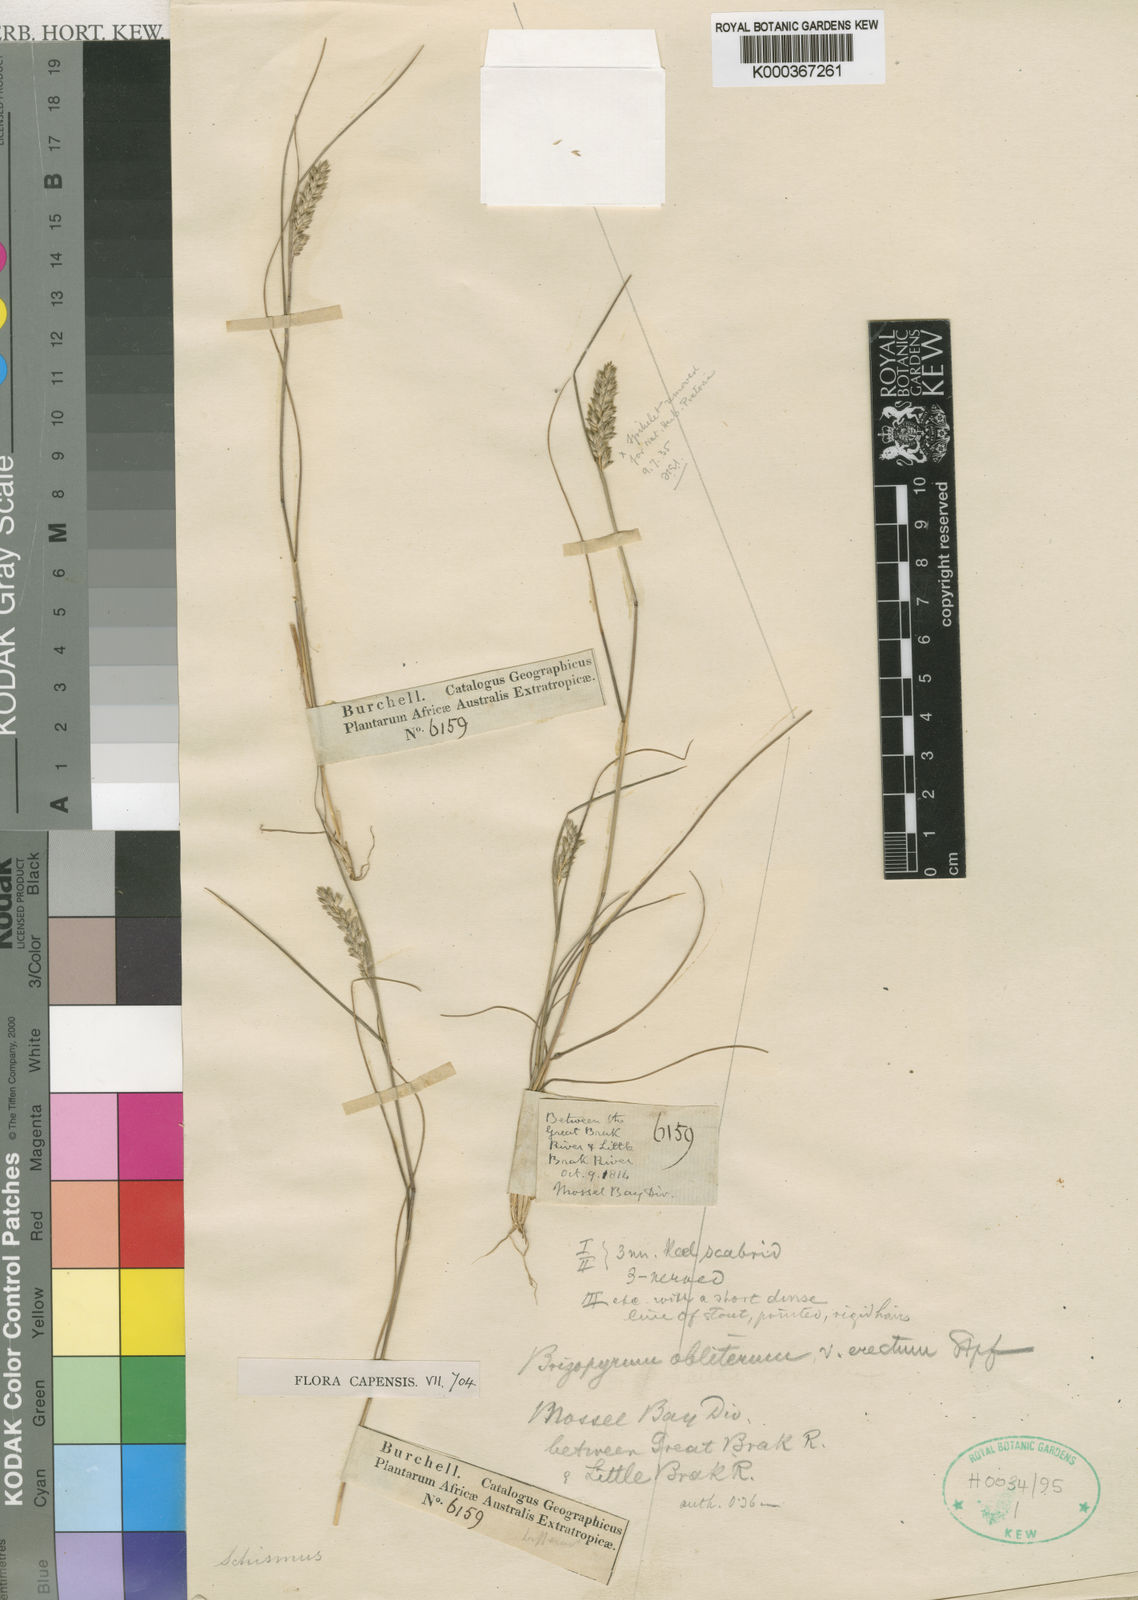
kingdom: Plantae
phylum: Tracheophyta
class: Liliopsida
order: Poales
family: Poaceae
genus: Tribolium
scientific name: Tribolium obliterum
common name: Capetown grass
